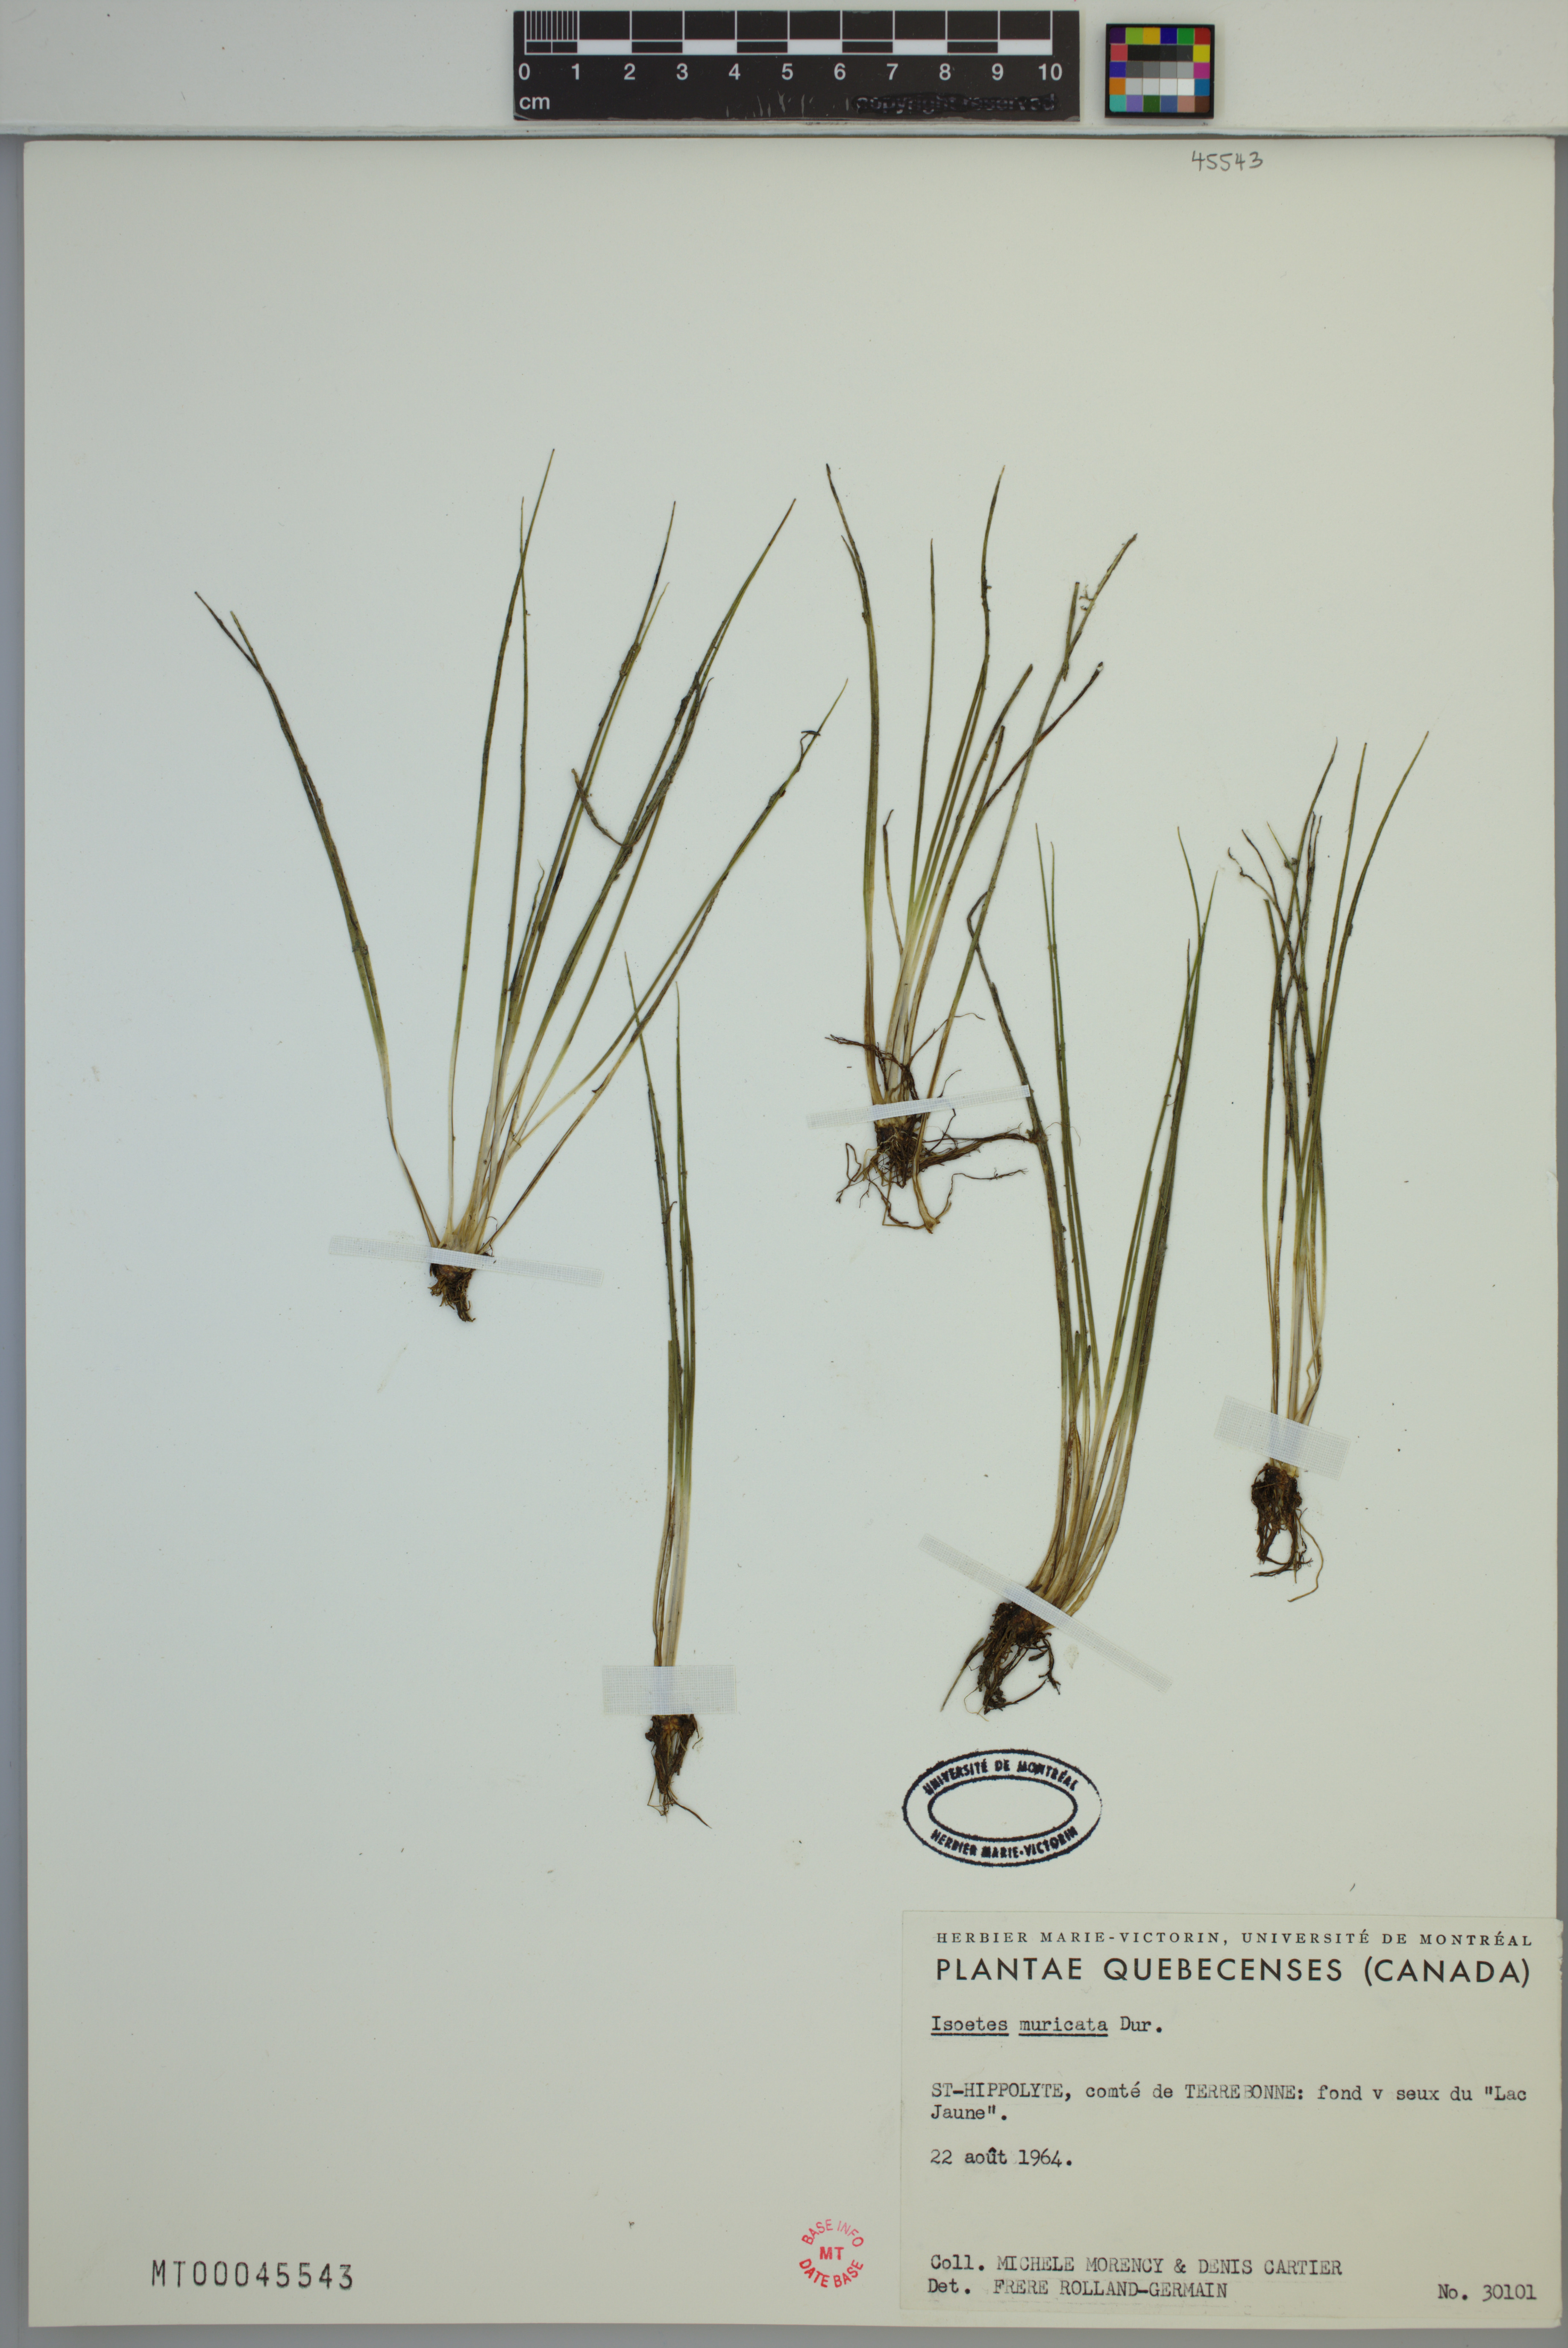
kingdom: Plantae
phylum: Tracheophyta
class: Lycopodiopsida
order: Isoetales
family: Isoetaceae
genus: Isoetes
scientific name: Isoetes echinospora
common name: Spring quillwort
